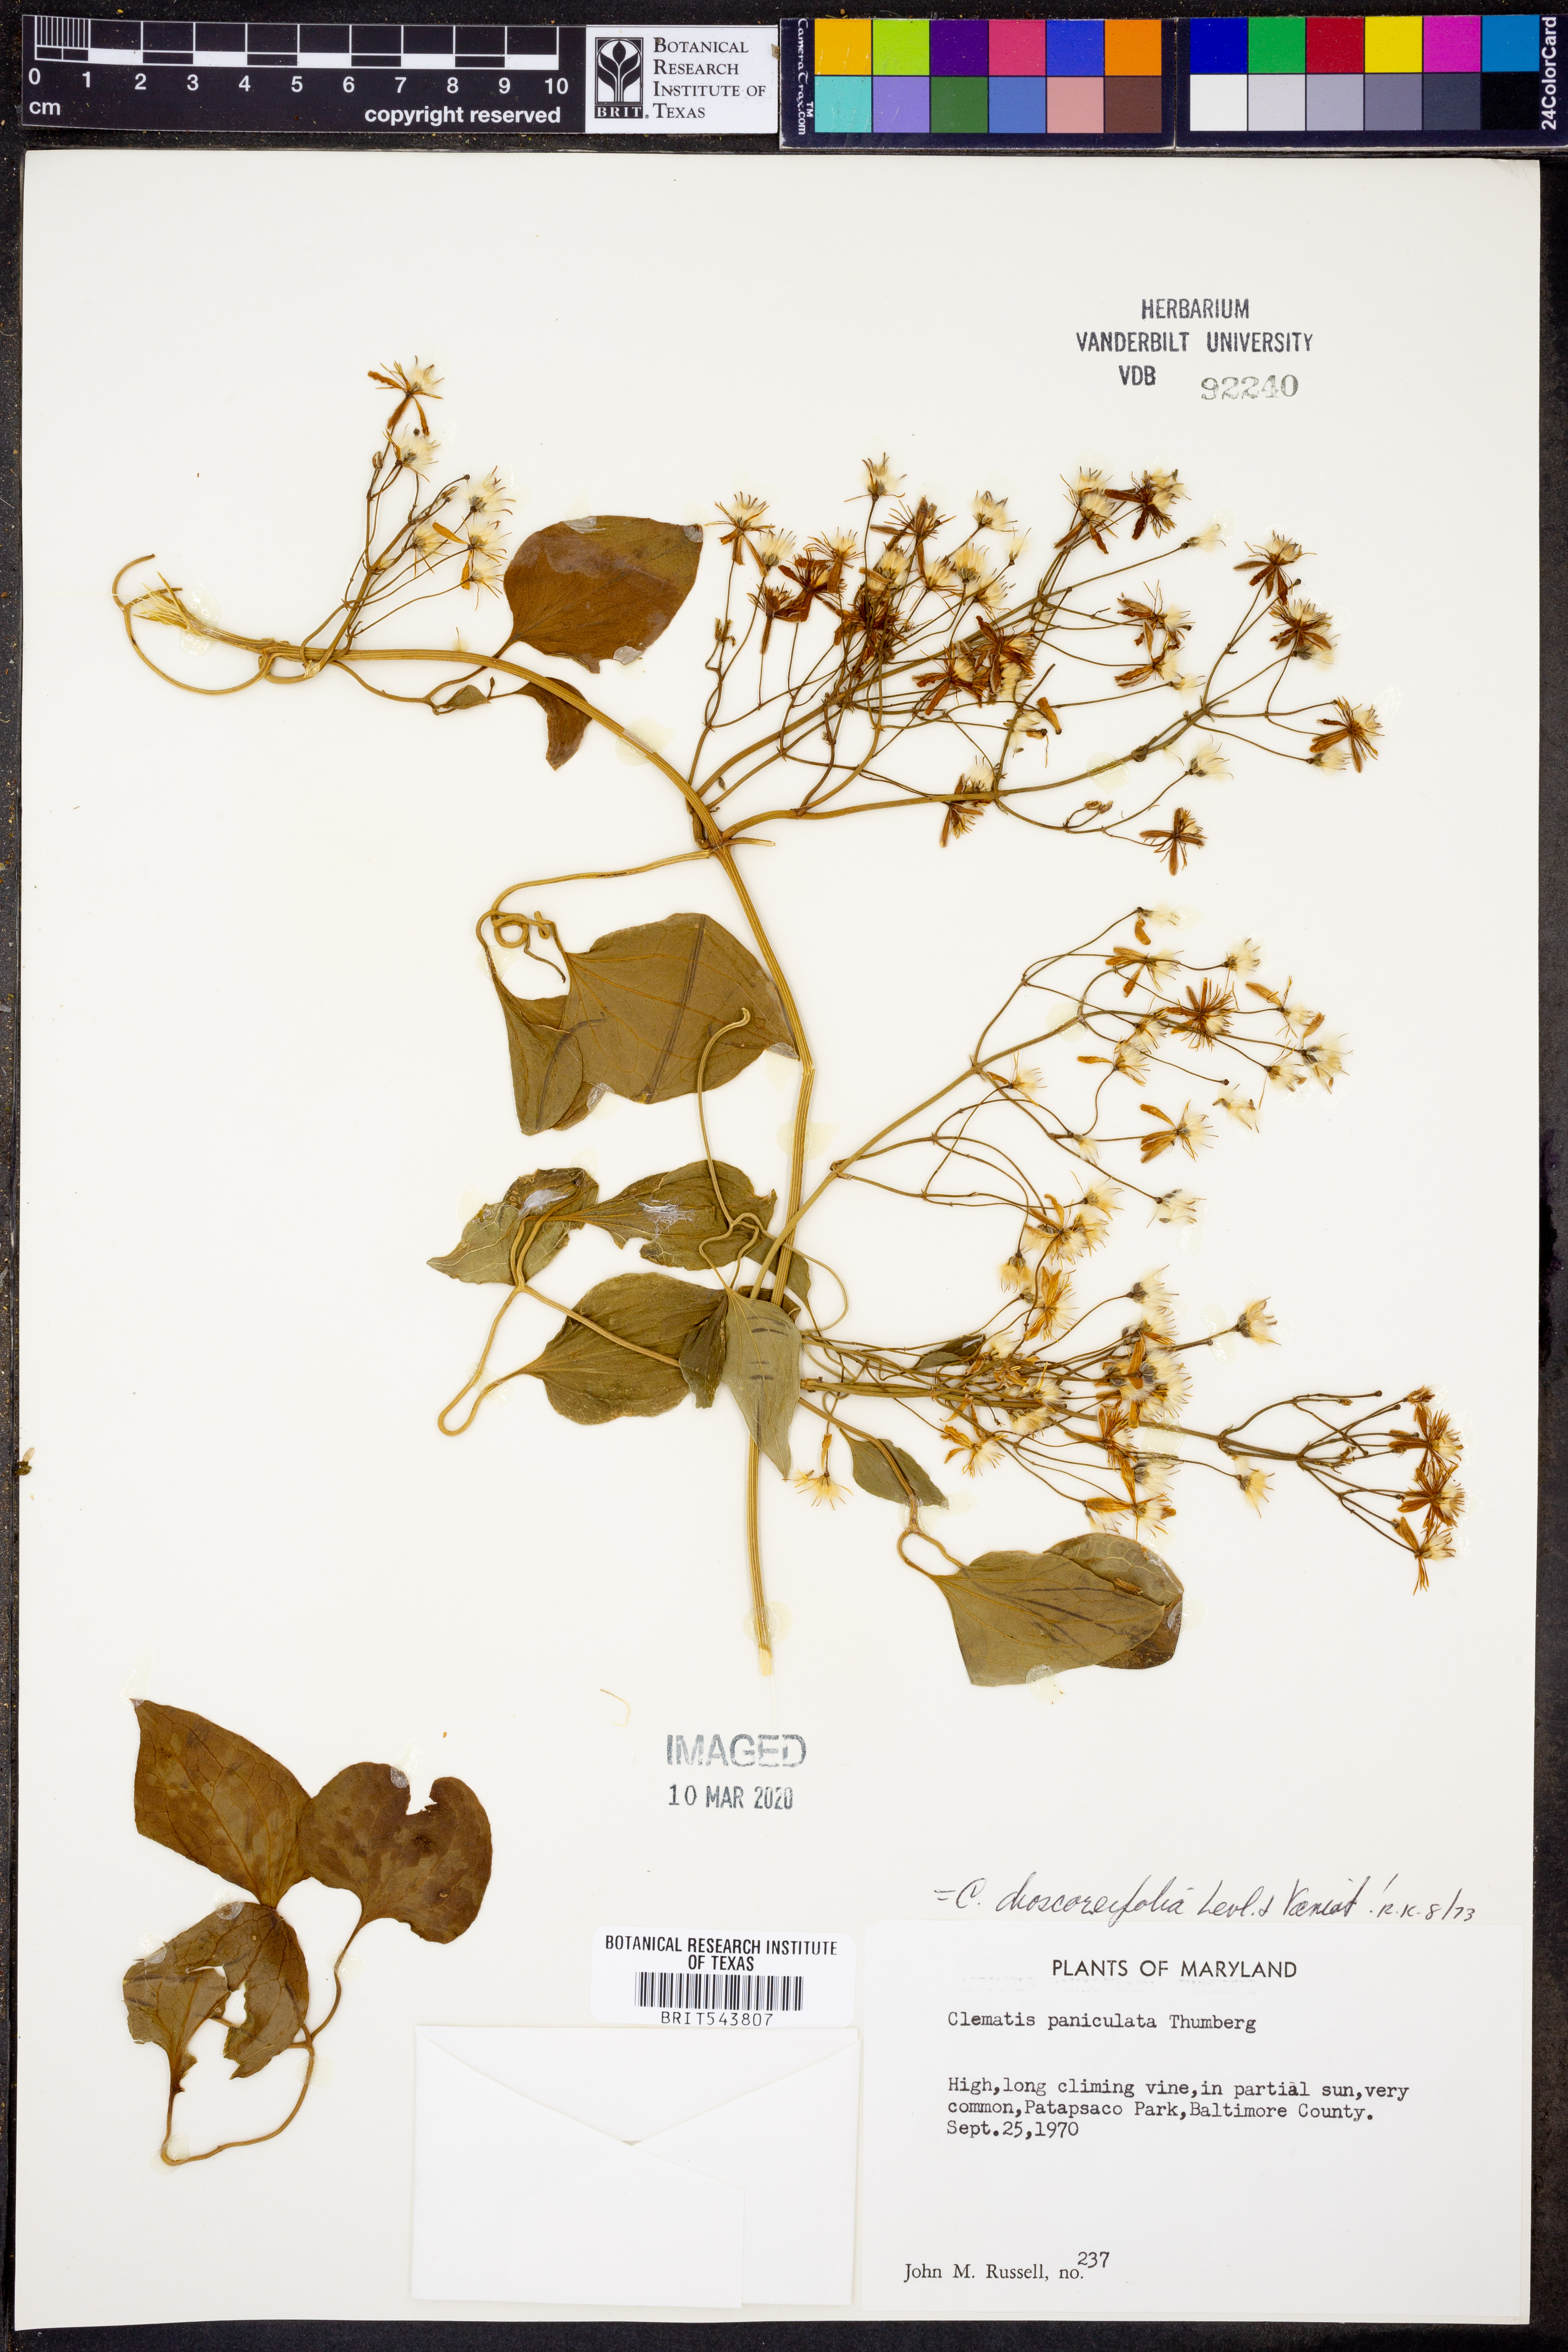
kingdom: Plantae
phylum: Tracheophyta
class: Magnoliopsida
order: Ranunculales
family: Ranunculaceae
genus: Clematis
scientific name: Clematis terniflora
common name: Sweet autumn clematis
